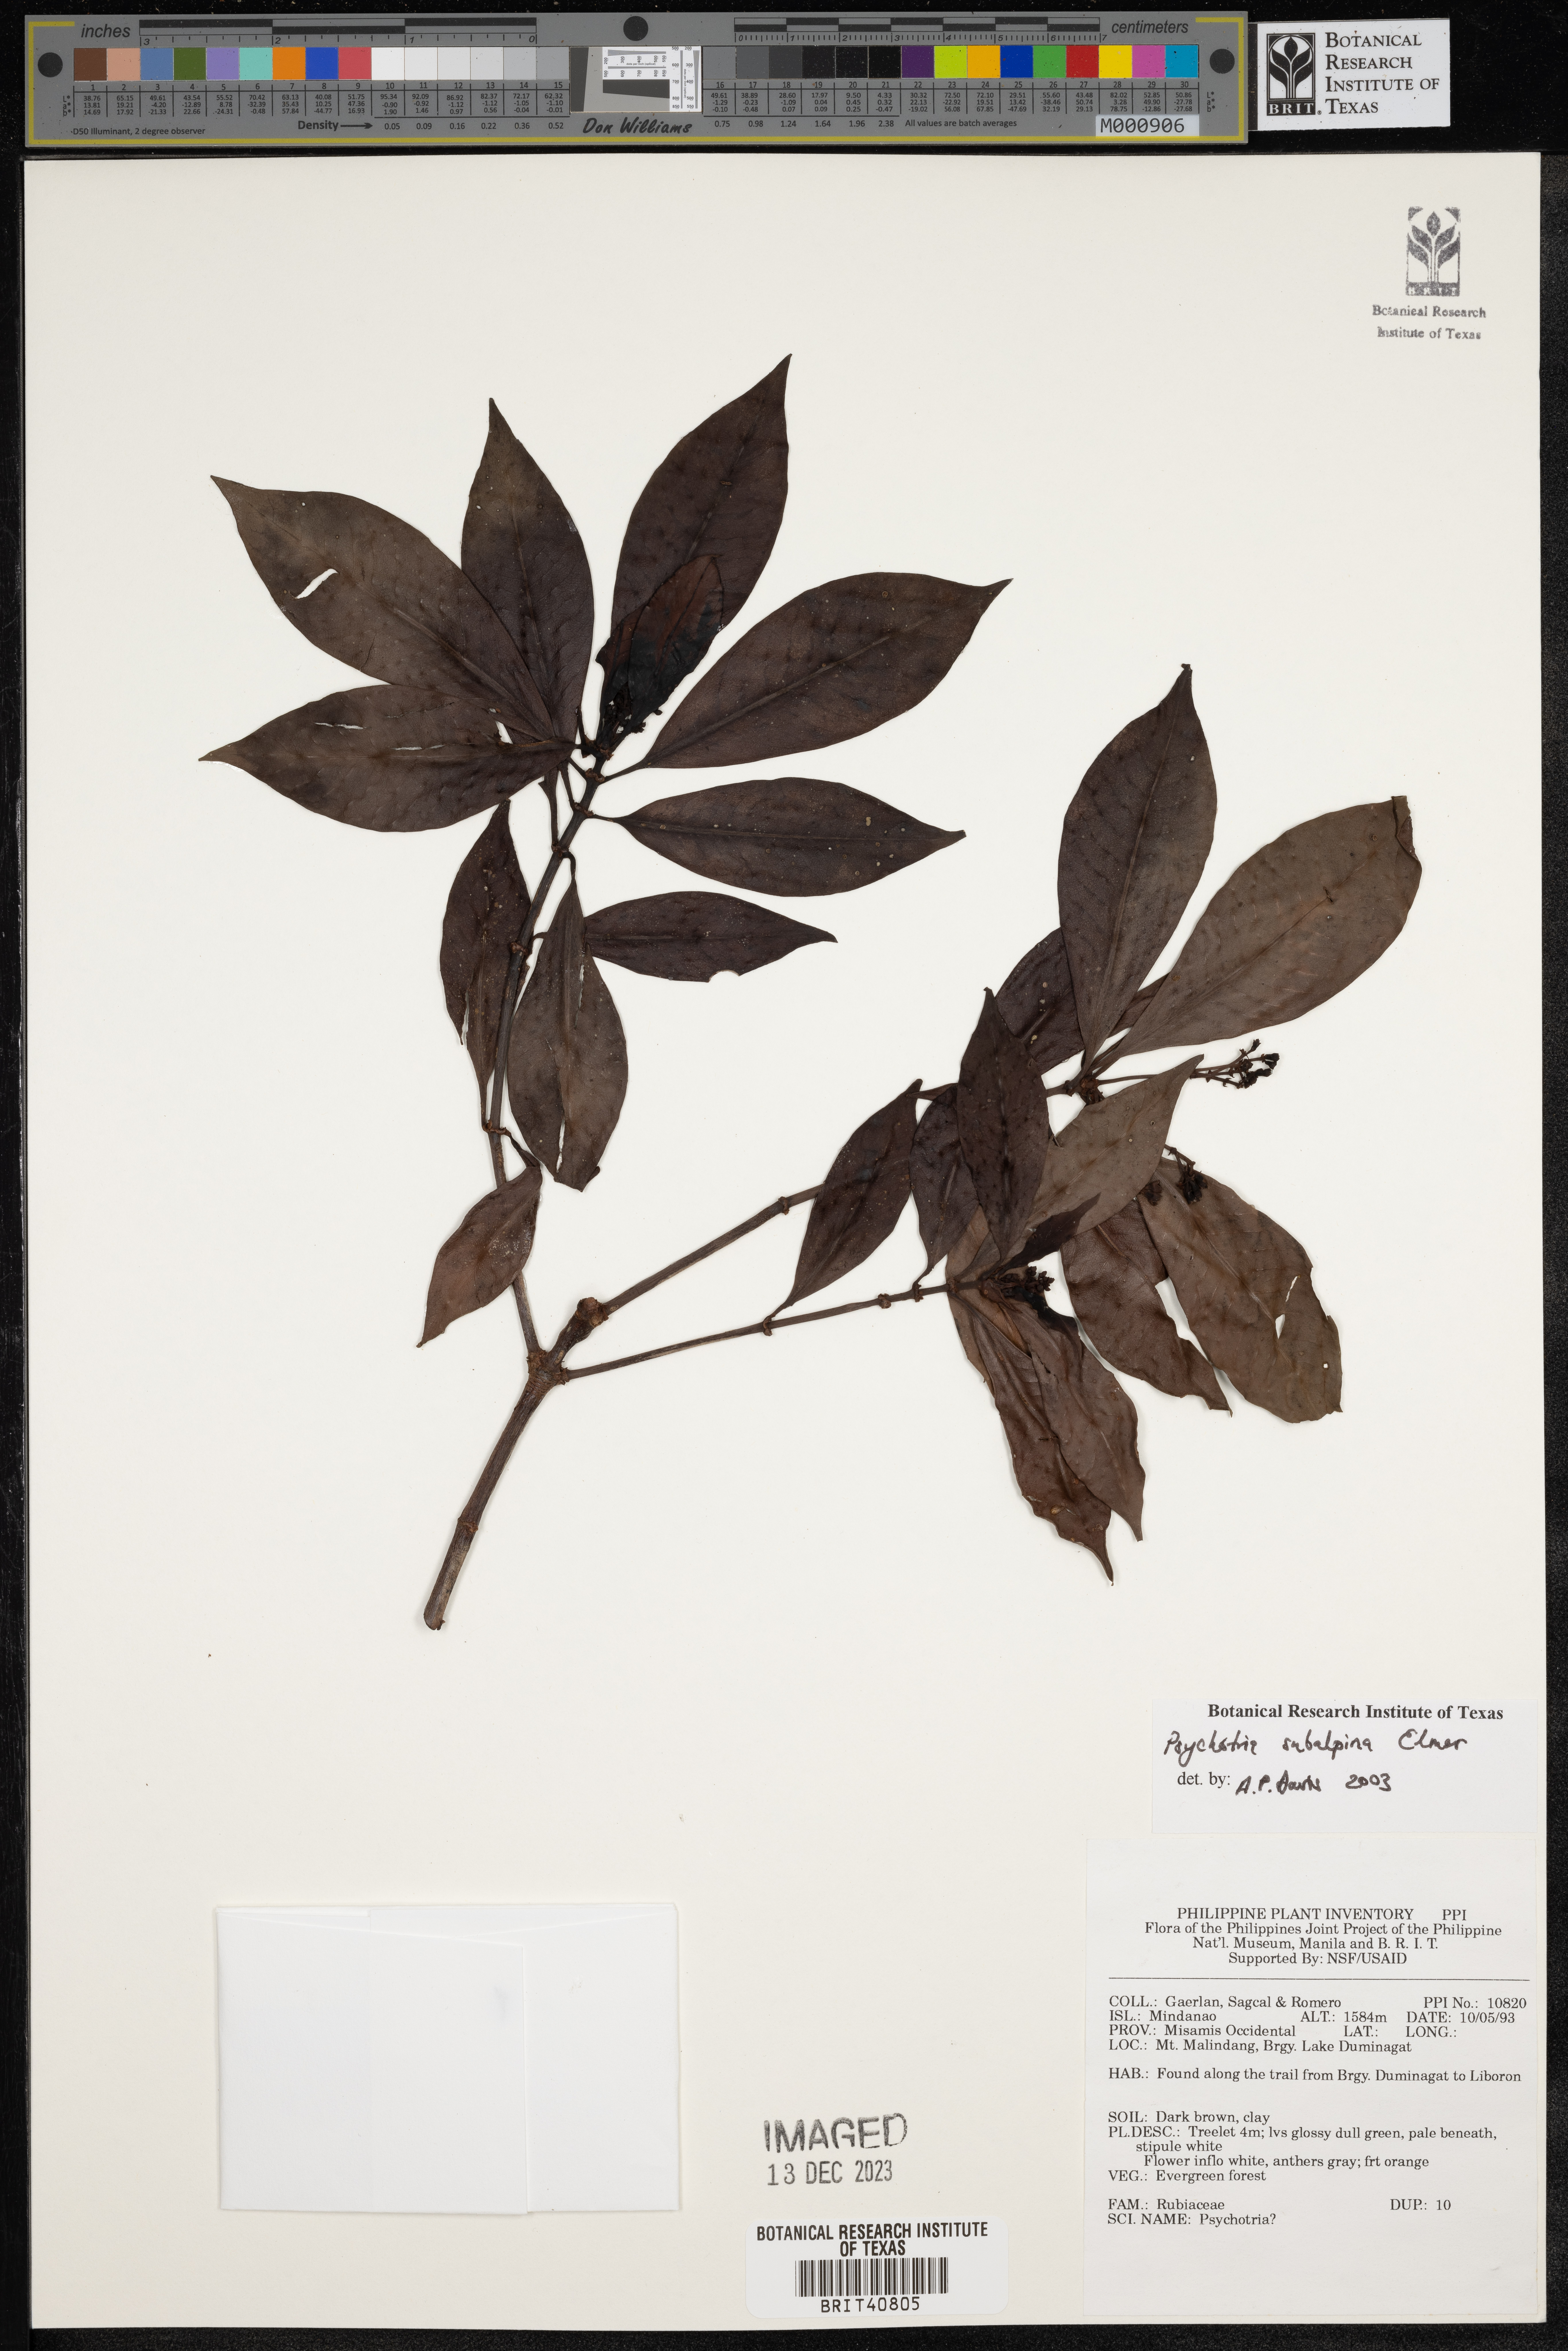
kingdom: Plantae
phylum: Tracheophyta
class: Magnoliopsida
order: Gentianales
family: Rubiaceae
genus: Psychotria
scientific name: Psychotria subalpina
